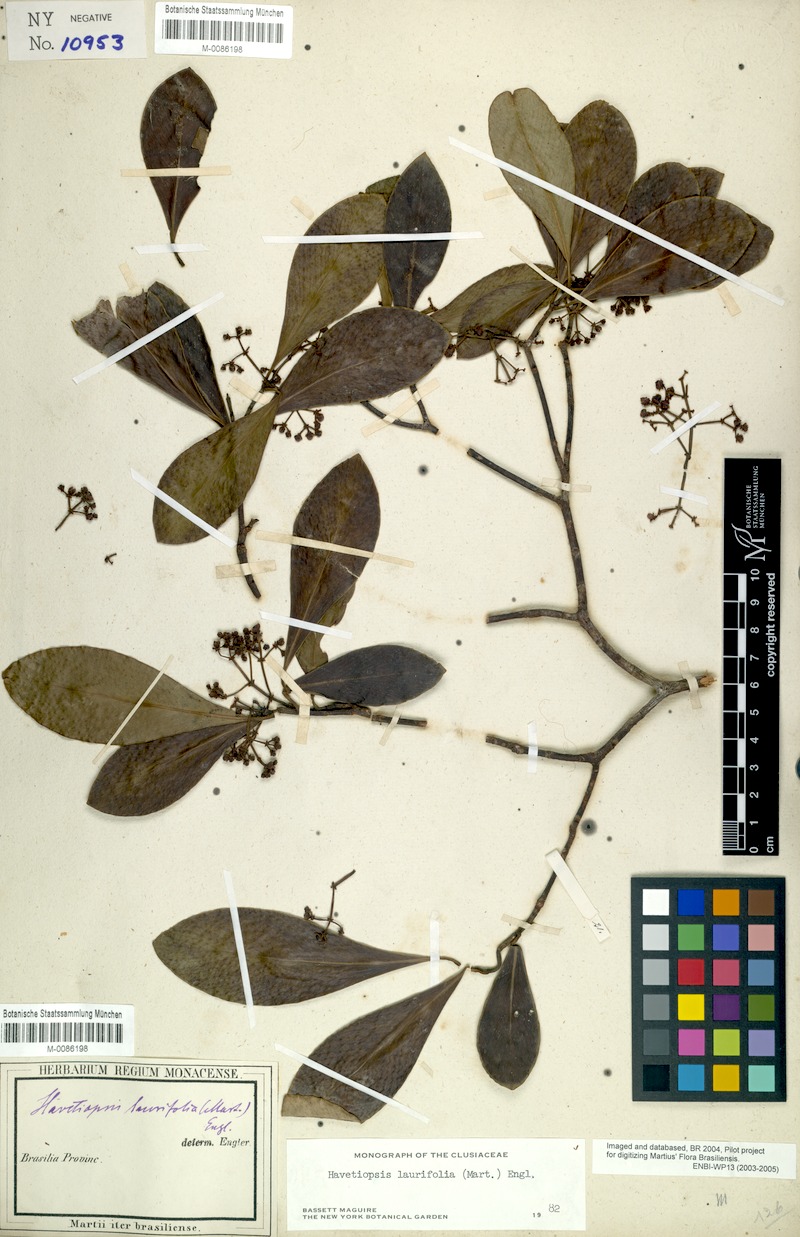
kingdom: Plantae
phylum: Tracheophyta
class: Magnoliopsida
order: Malpighiales
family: Clusiaceae
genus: Clusia
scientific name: Clusia flavida
